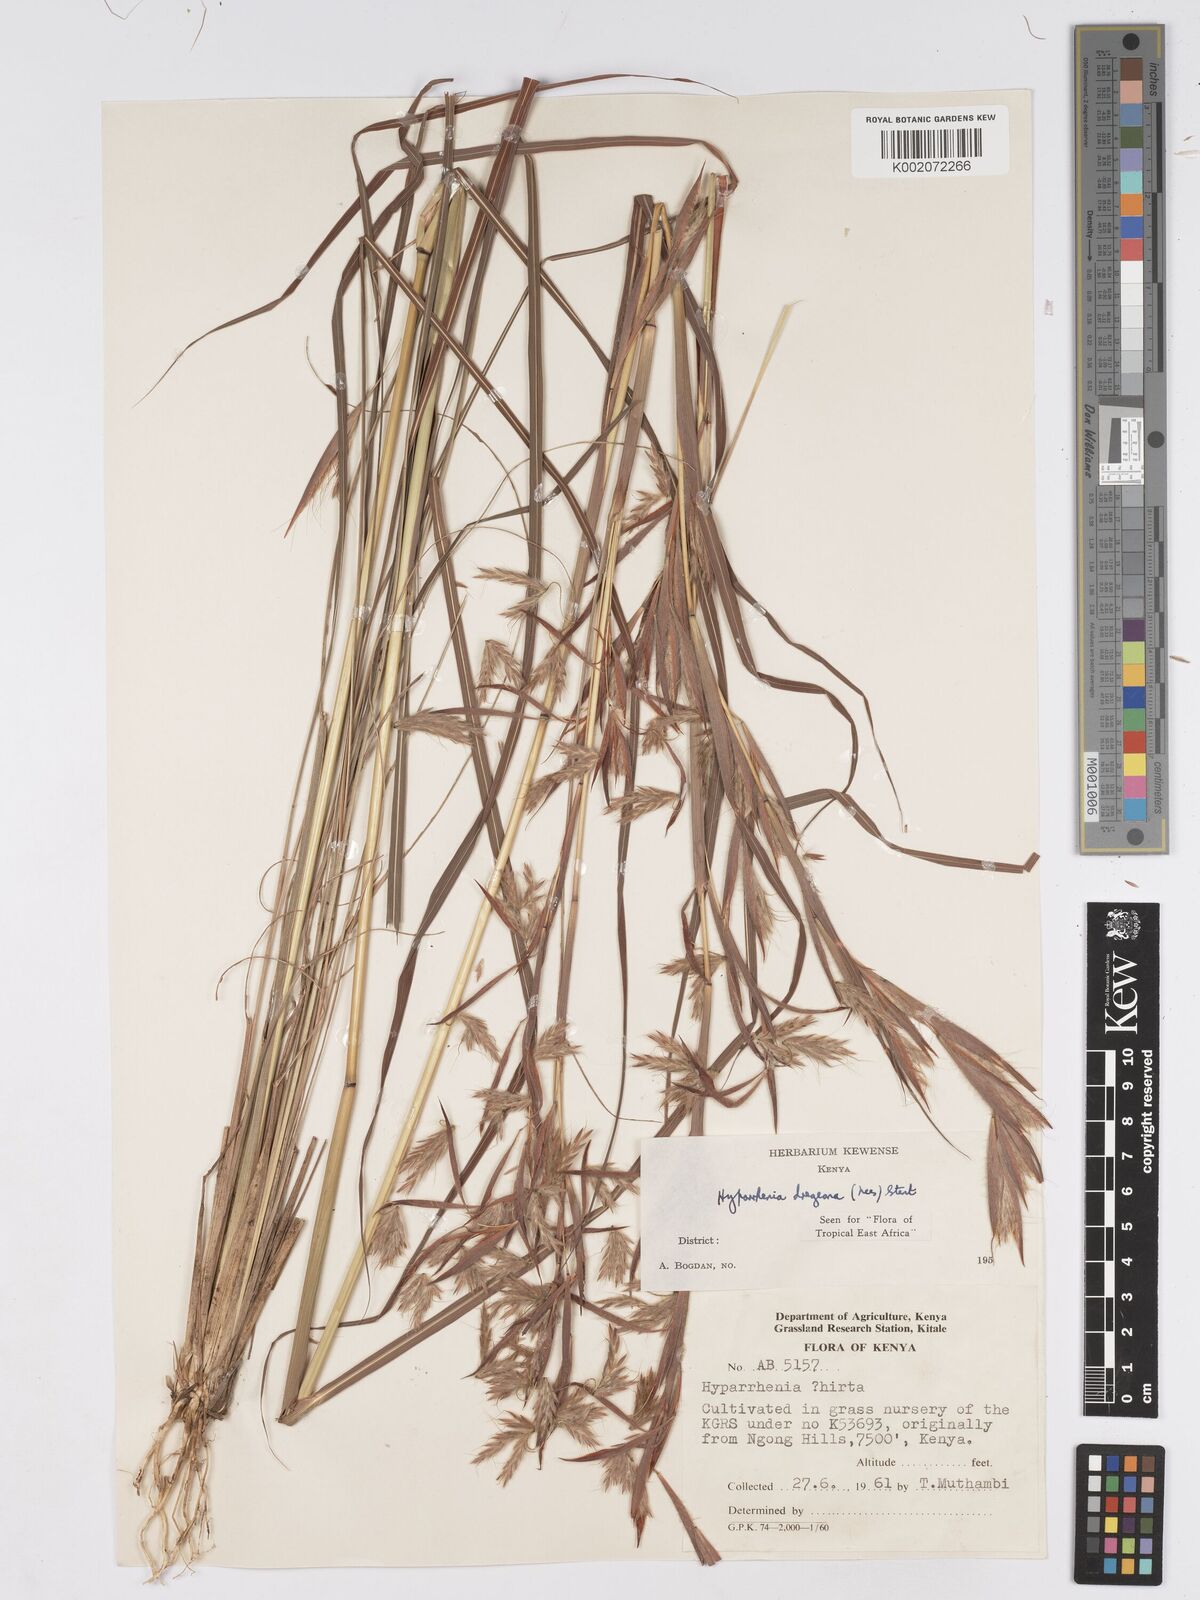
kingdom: Plantae
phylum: Tracheophyta
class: Liliopsida
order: Poales
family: Poaceae
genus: Hyparrhenia
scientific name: Hyparrhenia dregeana
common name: Silky thatching grass
